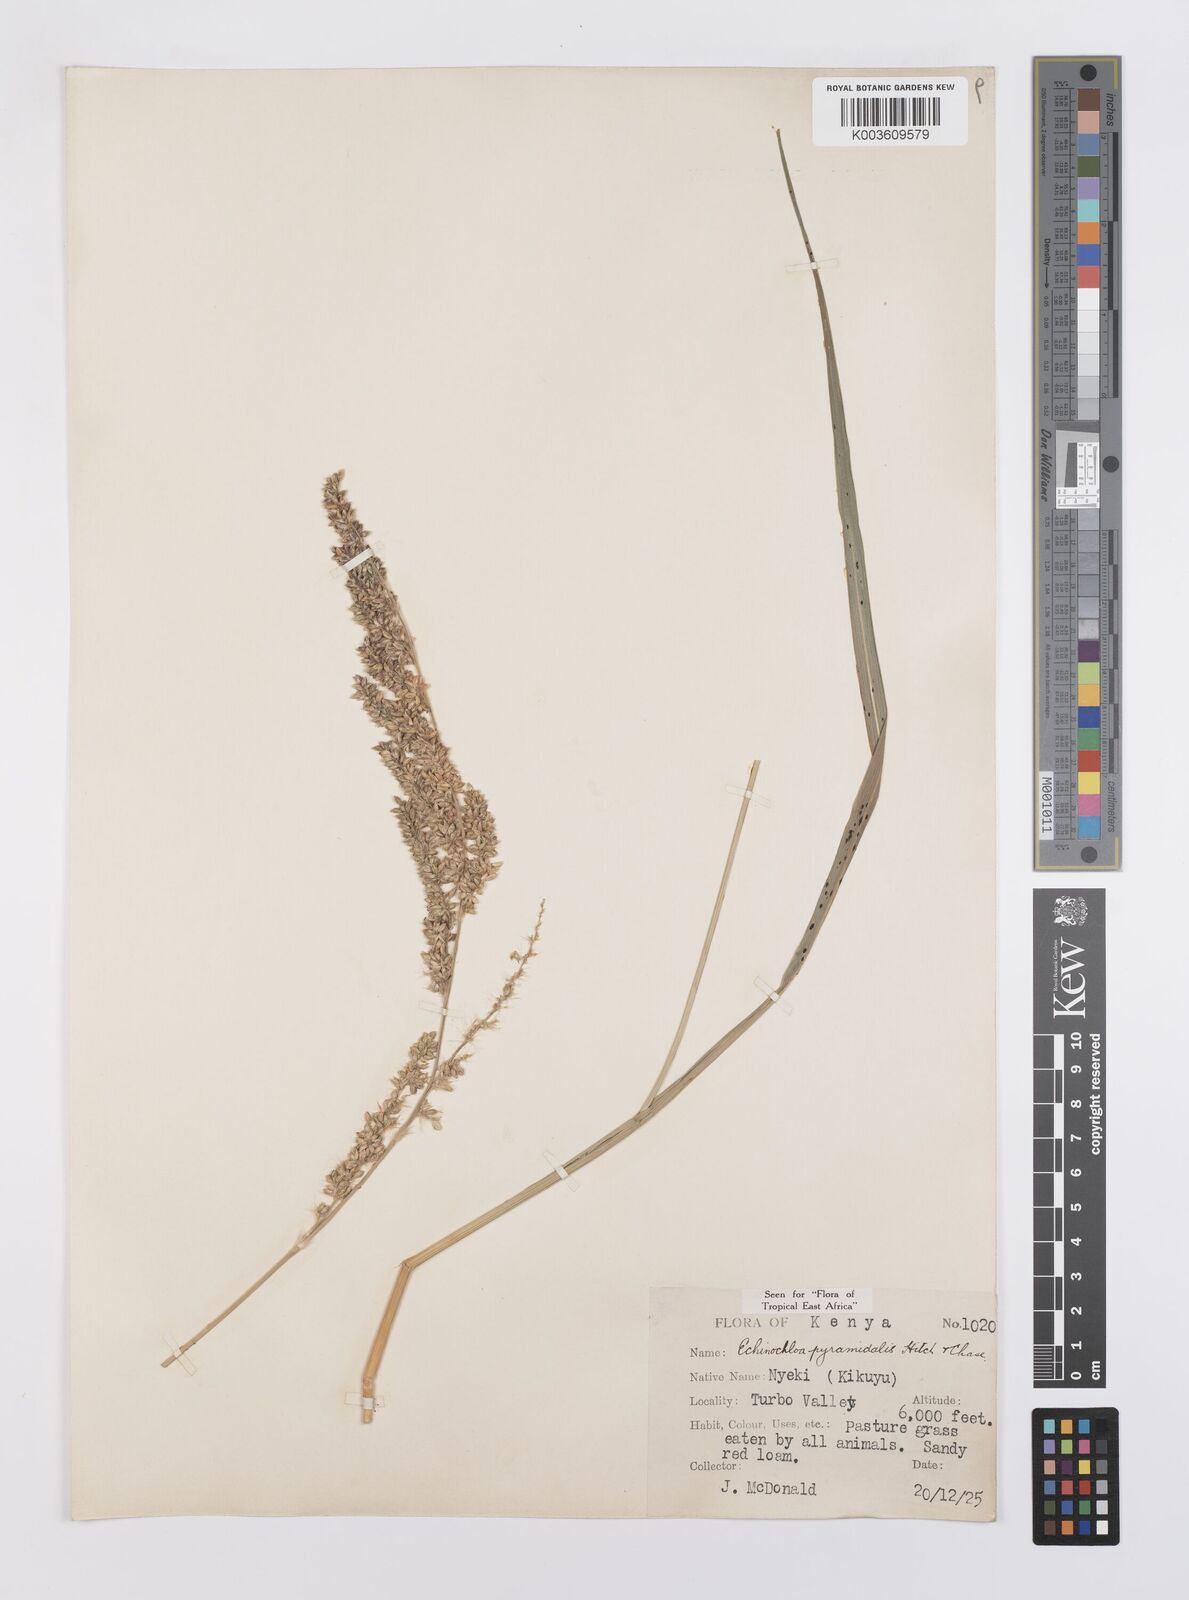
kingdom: Plantae
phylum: Tracheophyta
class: Liliopsida
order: Poales
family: Poaceae
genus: Echinochloa
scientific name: Echinochloa pyramidalis
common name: Antelope grass
